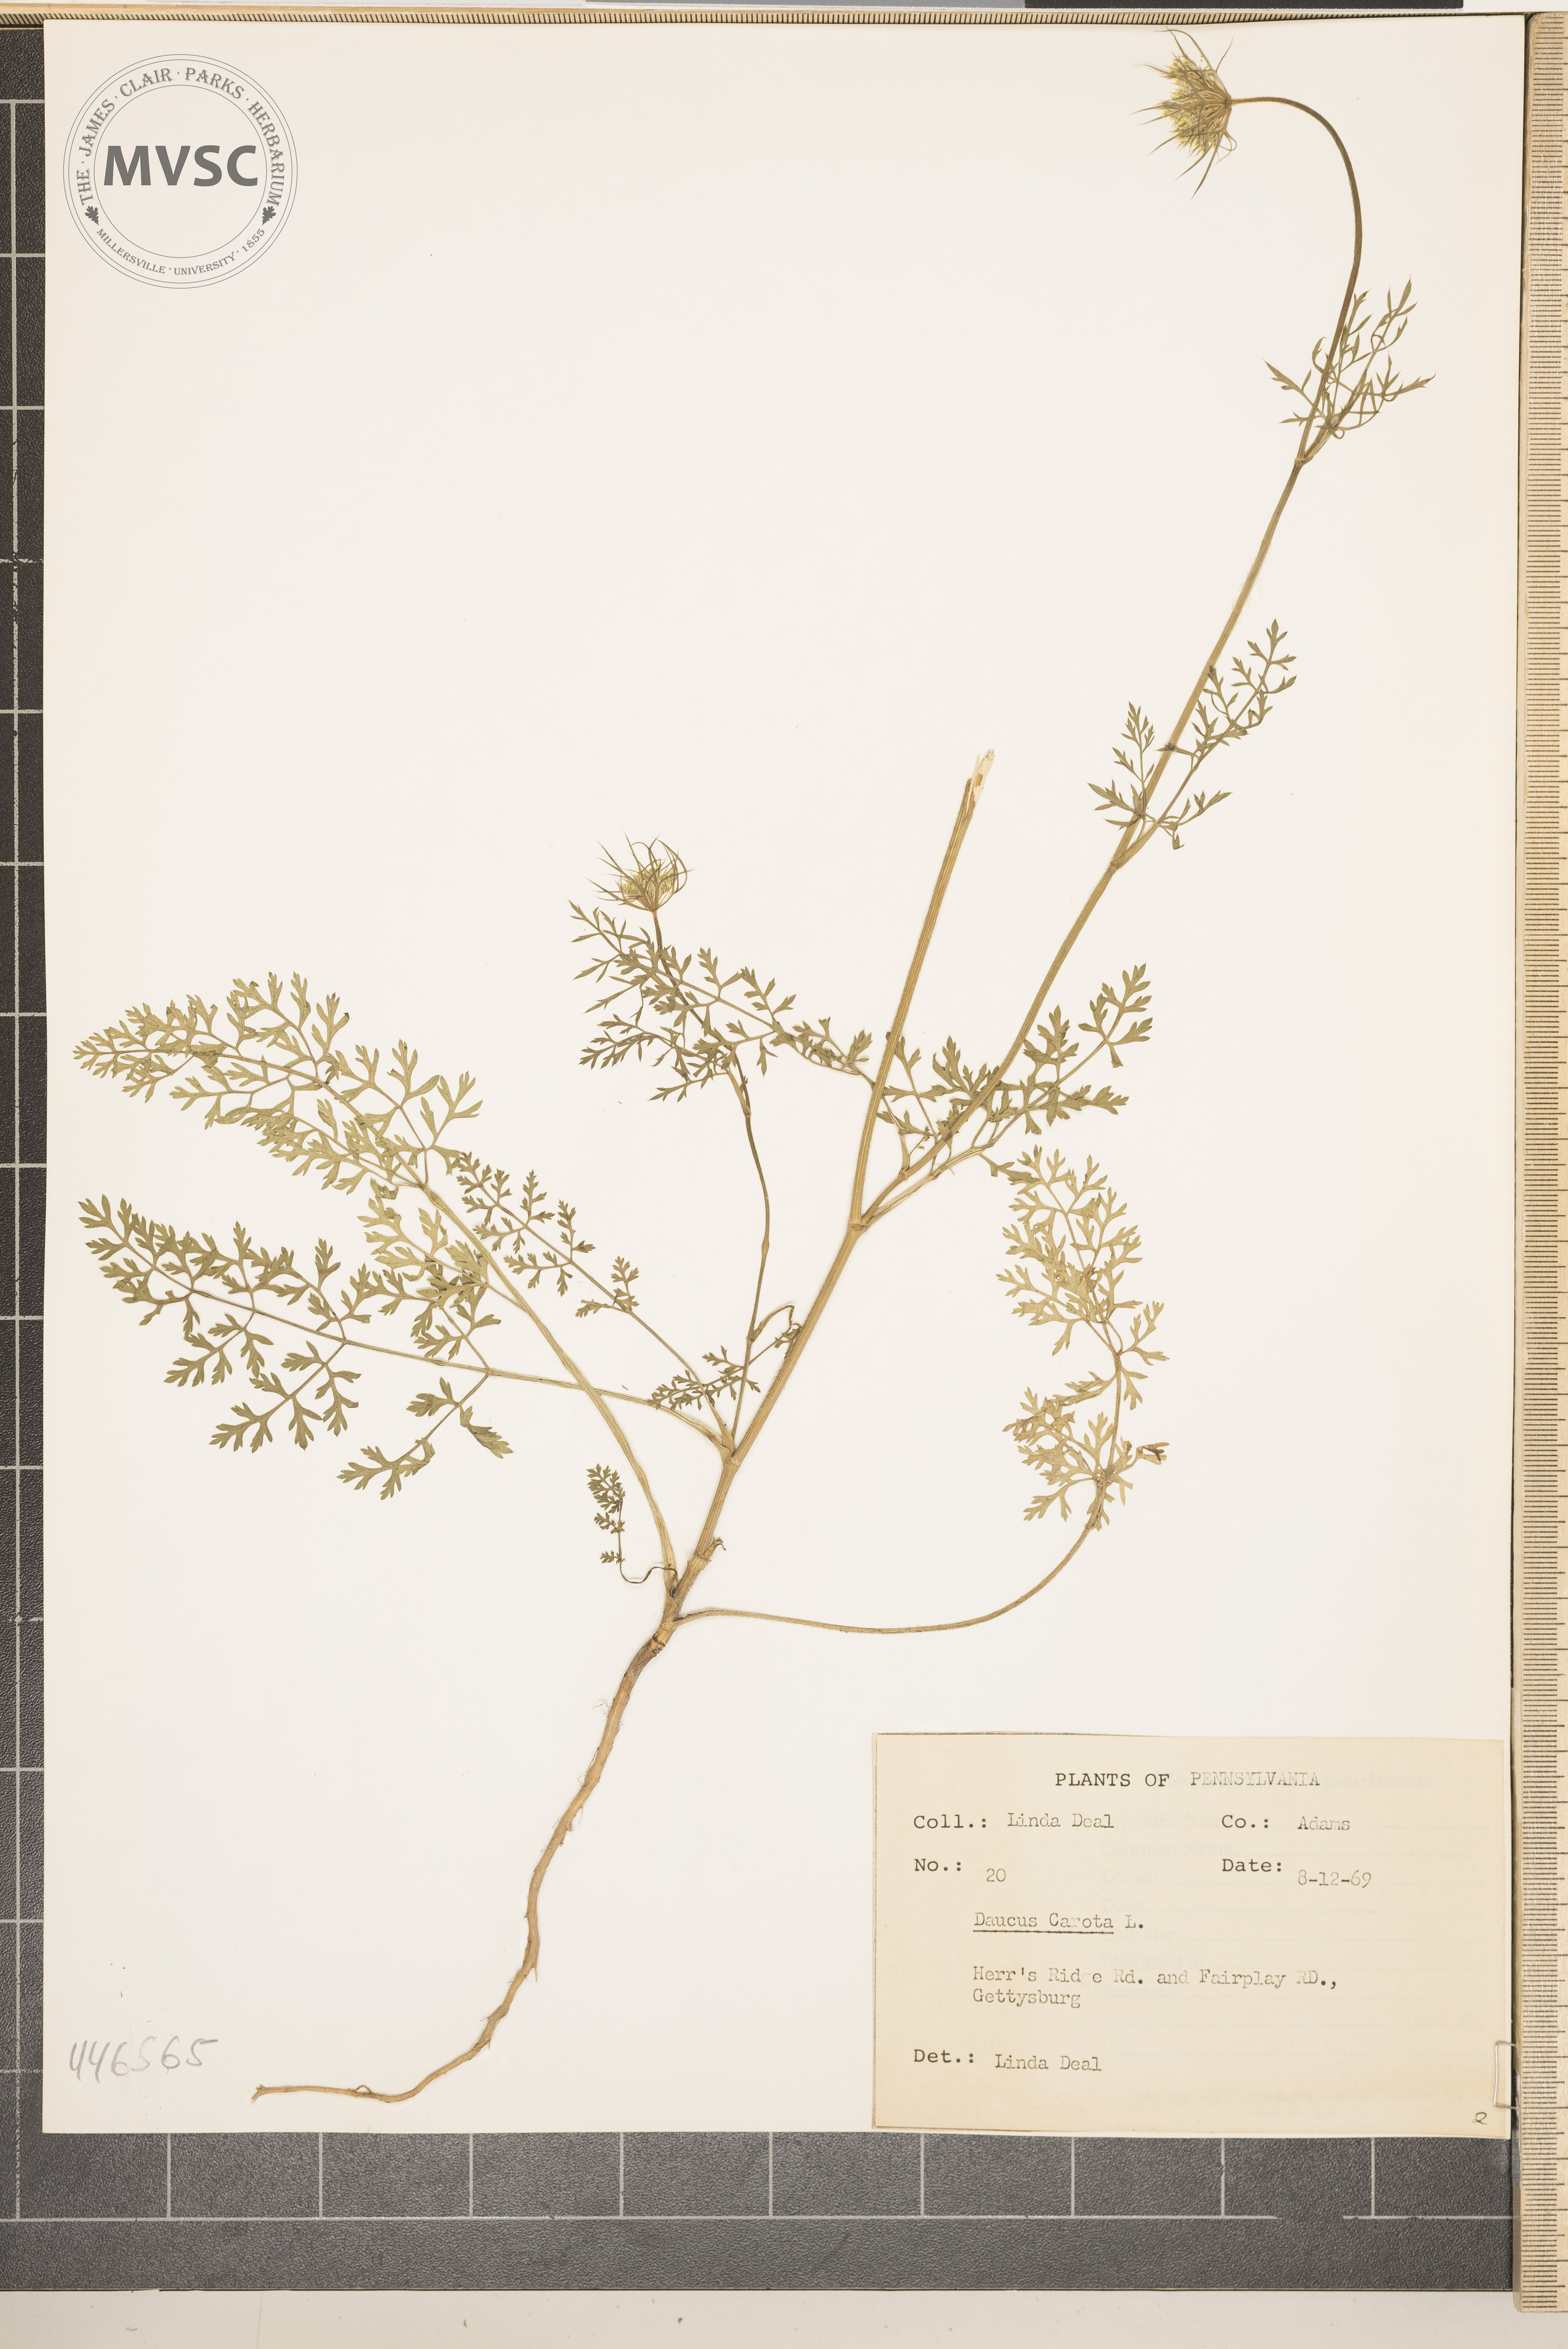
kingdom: Plantae
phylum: Tracheophyta
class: Magnoliopsida
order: Apiales
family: Apiaceae
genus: Daucus
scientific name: Daucus carota
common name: Wild carrot
